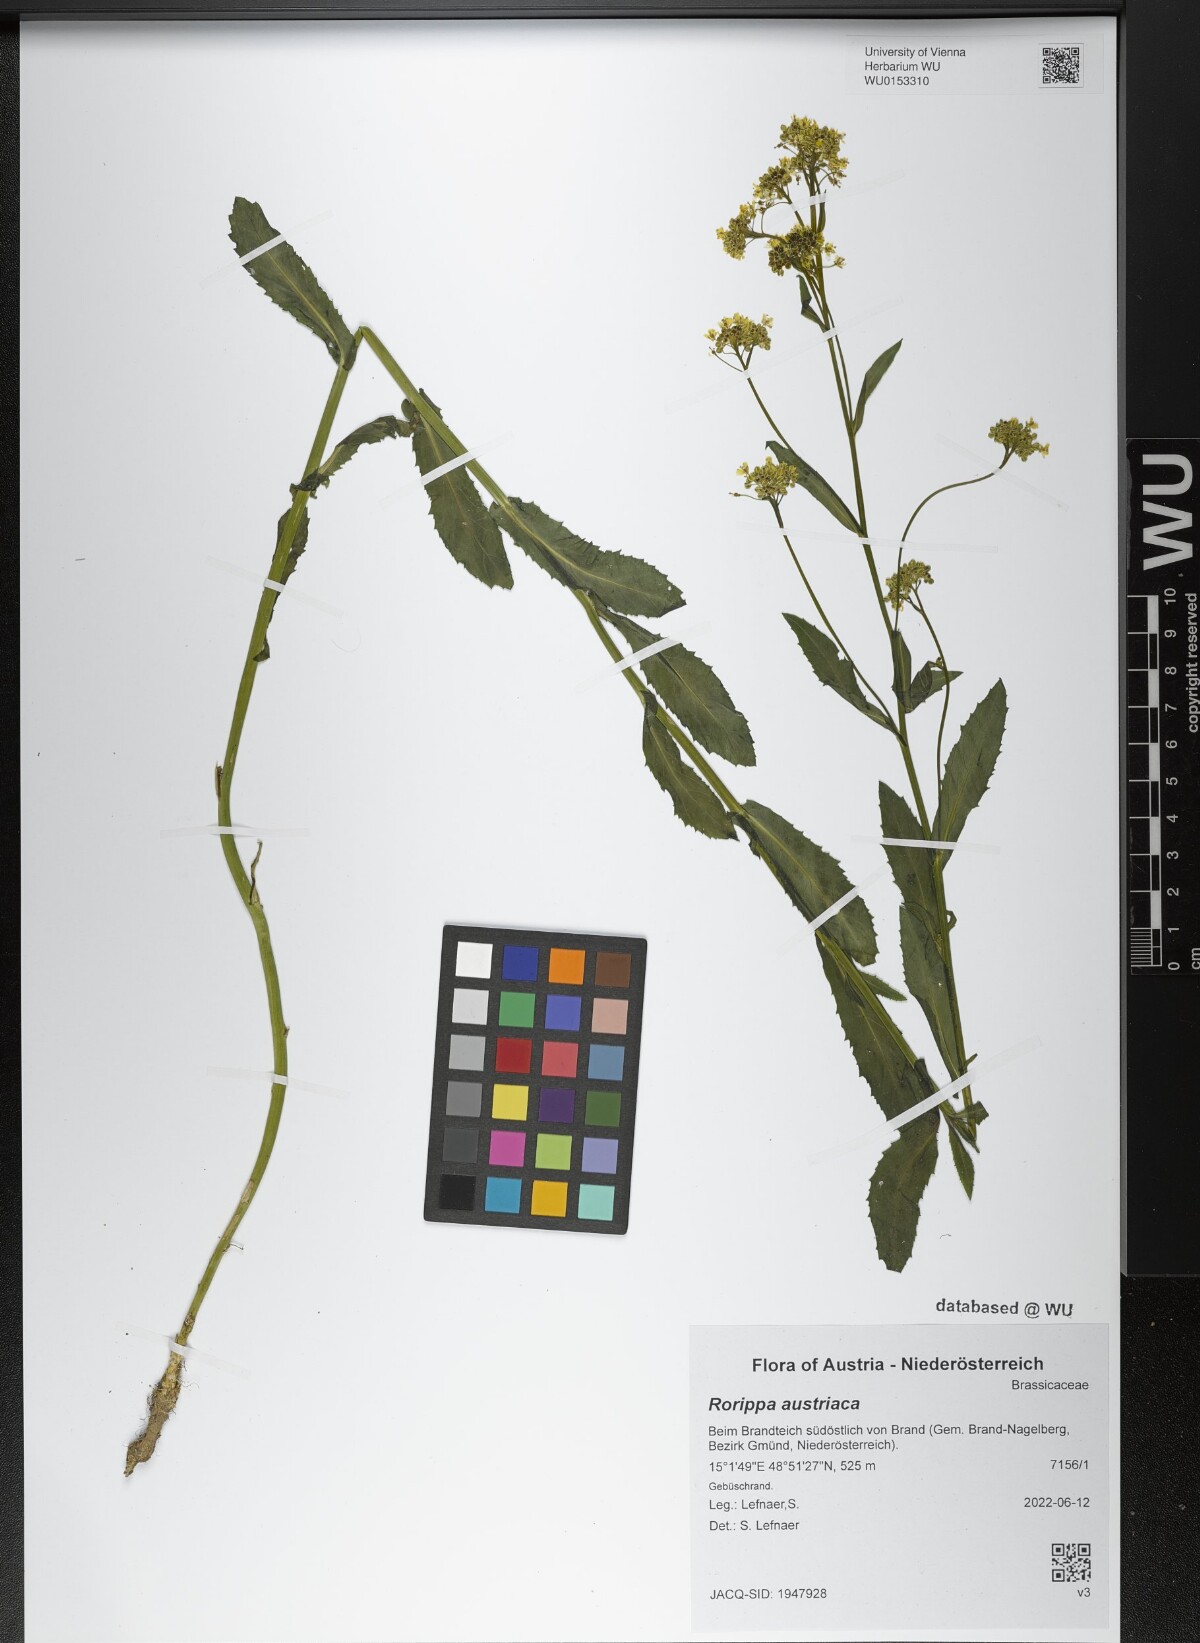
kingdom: Plantae
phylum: Tracheophyta
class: Magnoliopsida
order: Brassicales
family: Brassicaceae
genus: Rorippa
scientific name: Rorippa austriaca
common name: Austrian yellow-cress
